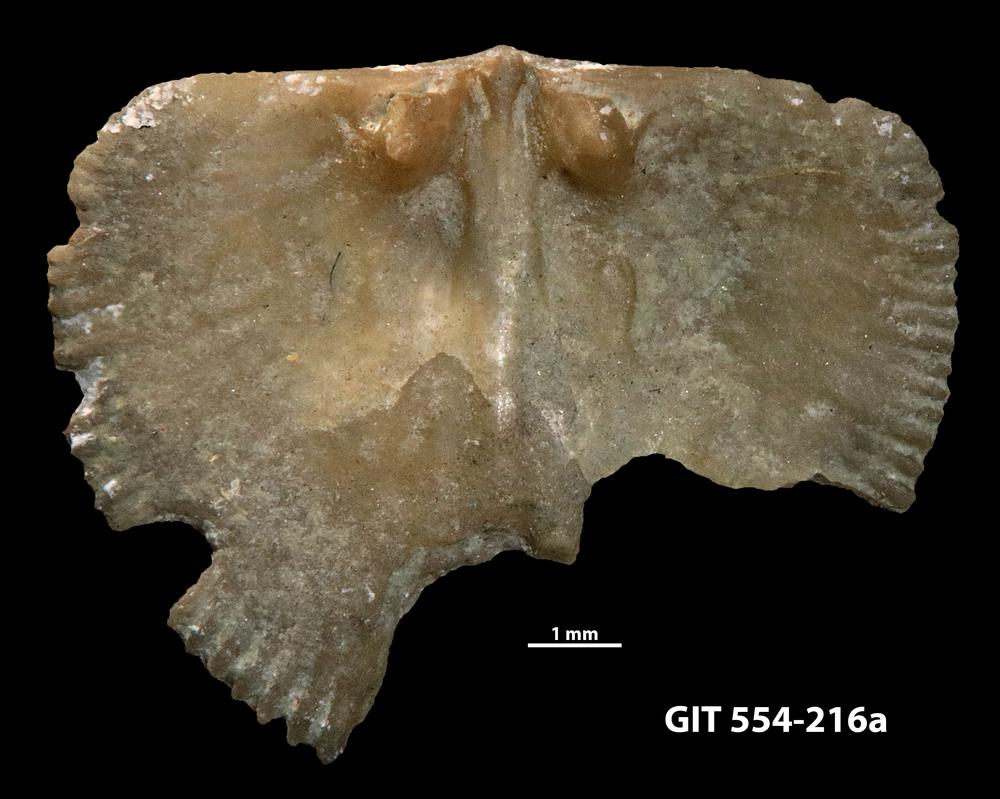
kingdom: Animalia
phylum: Brachiopoda
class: Rhynchonellata
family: Dalmanellidae
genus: Resserella
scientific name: Resserella Orthis canalis
